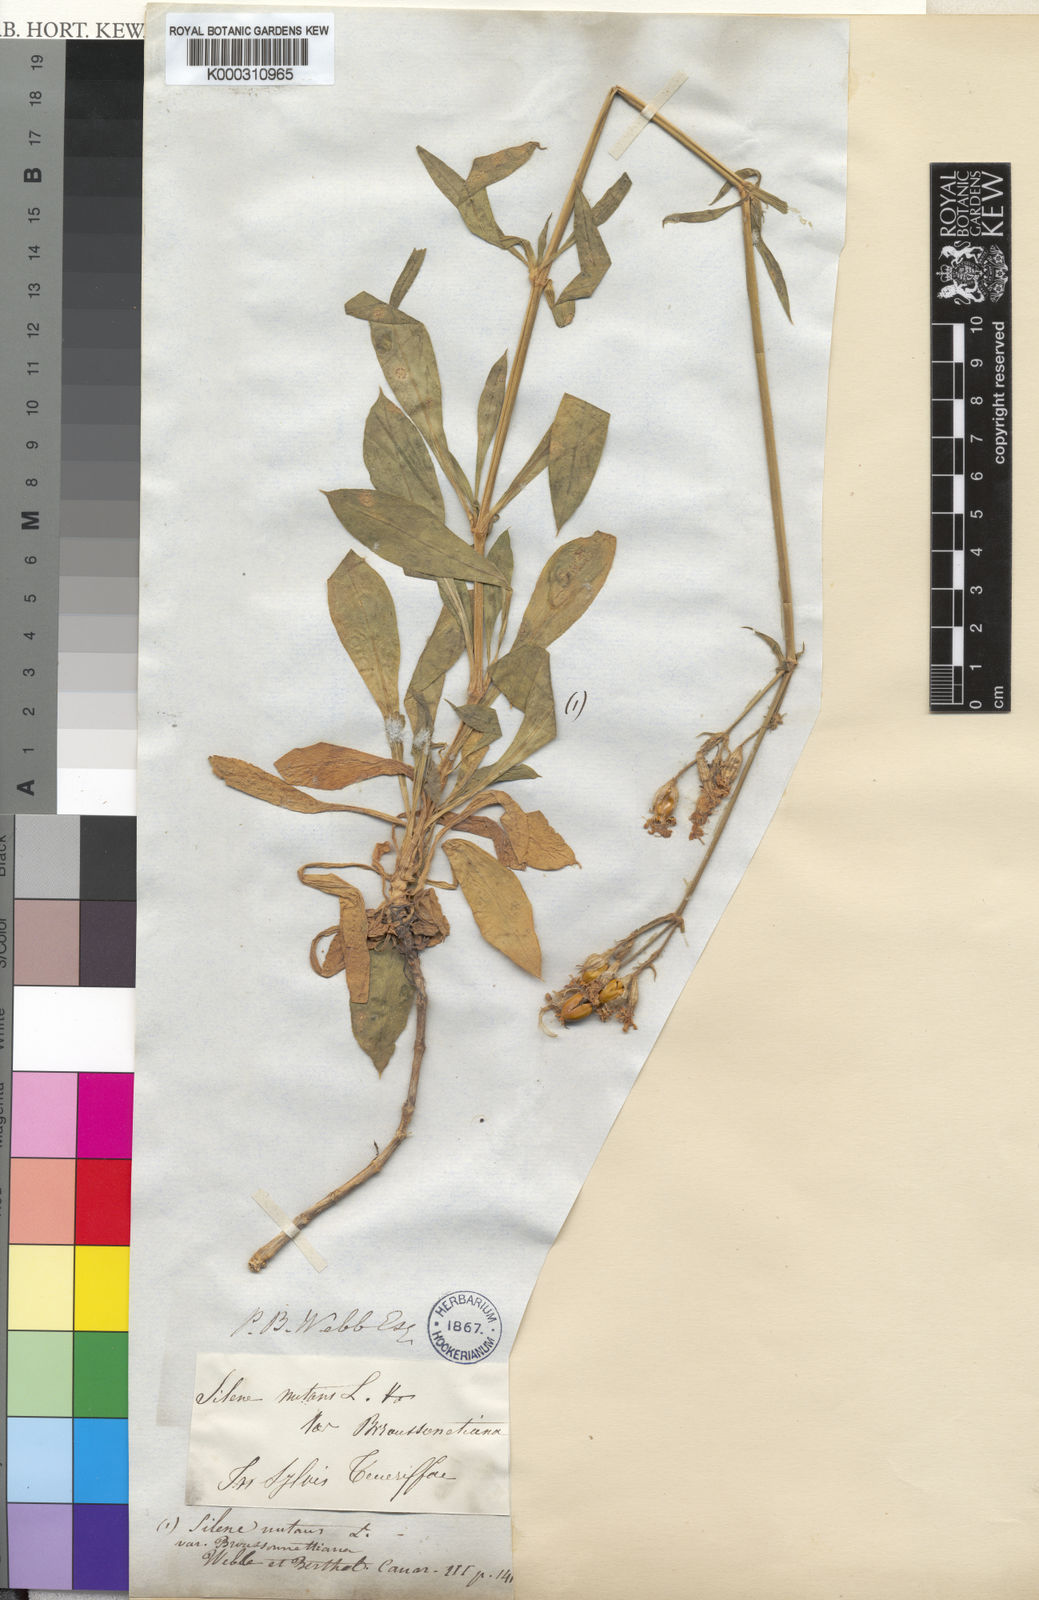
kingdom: Plantae
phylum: Tracheophyta
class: Magnoliopsida
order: Caryophyllales
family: Caryophyllaceae
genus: Silene
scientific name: Silene nutans
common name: Nottingham catchfly
